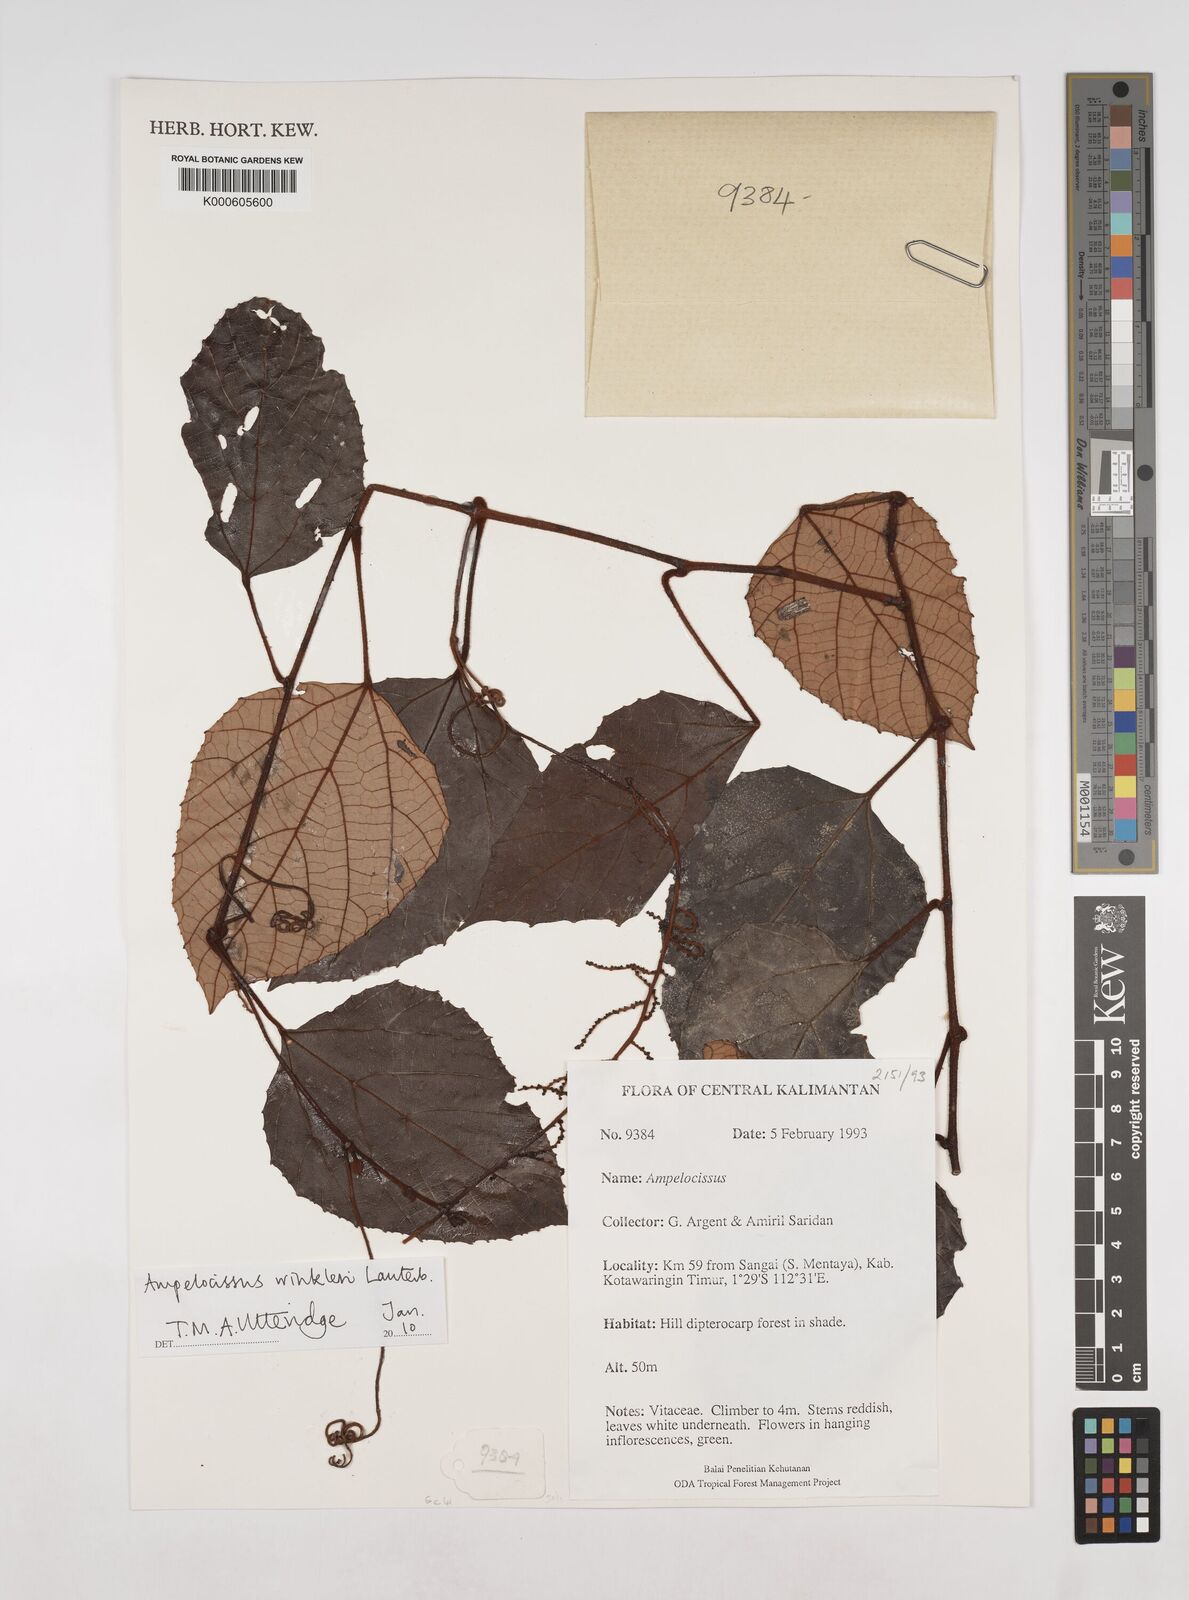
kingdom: Plantae
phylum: Tracheophyta
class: Magnoliopsida
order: Vitales
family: Vitaceae
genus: Ampelocissus
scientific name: Ampelocissus winkleri
